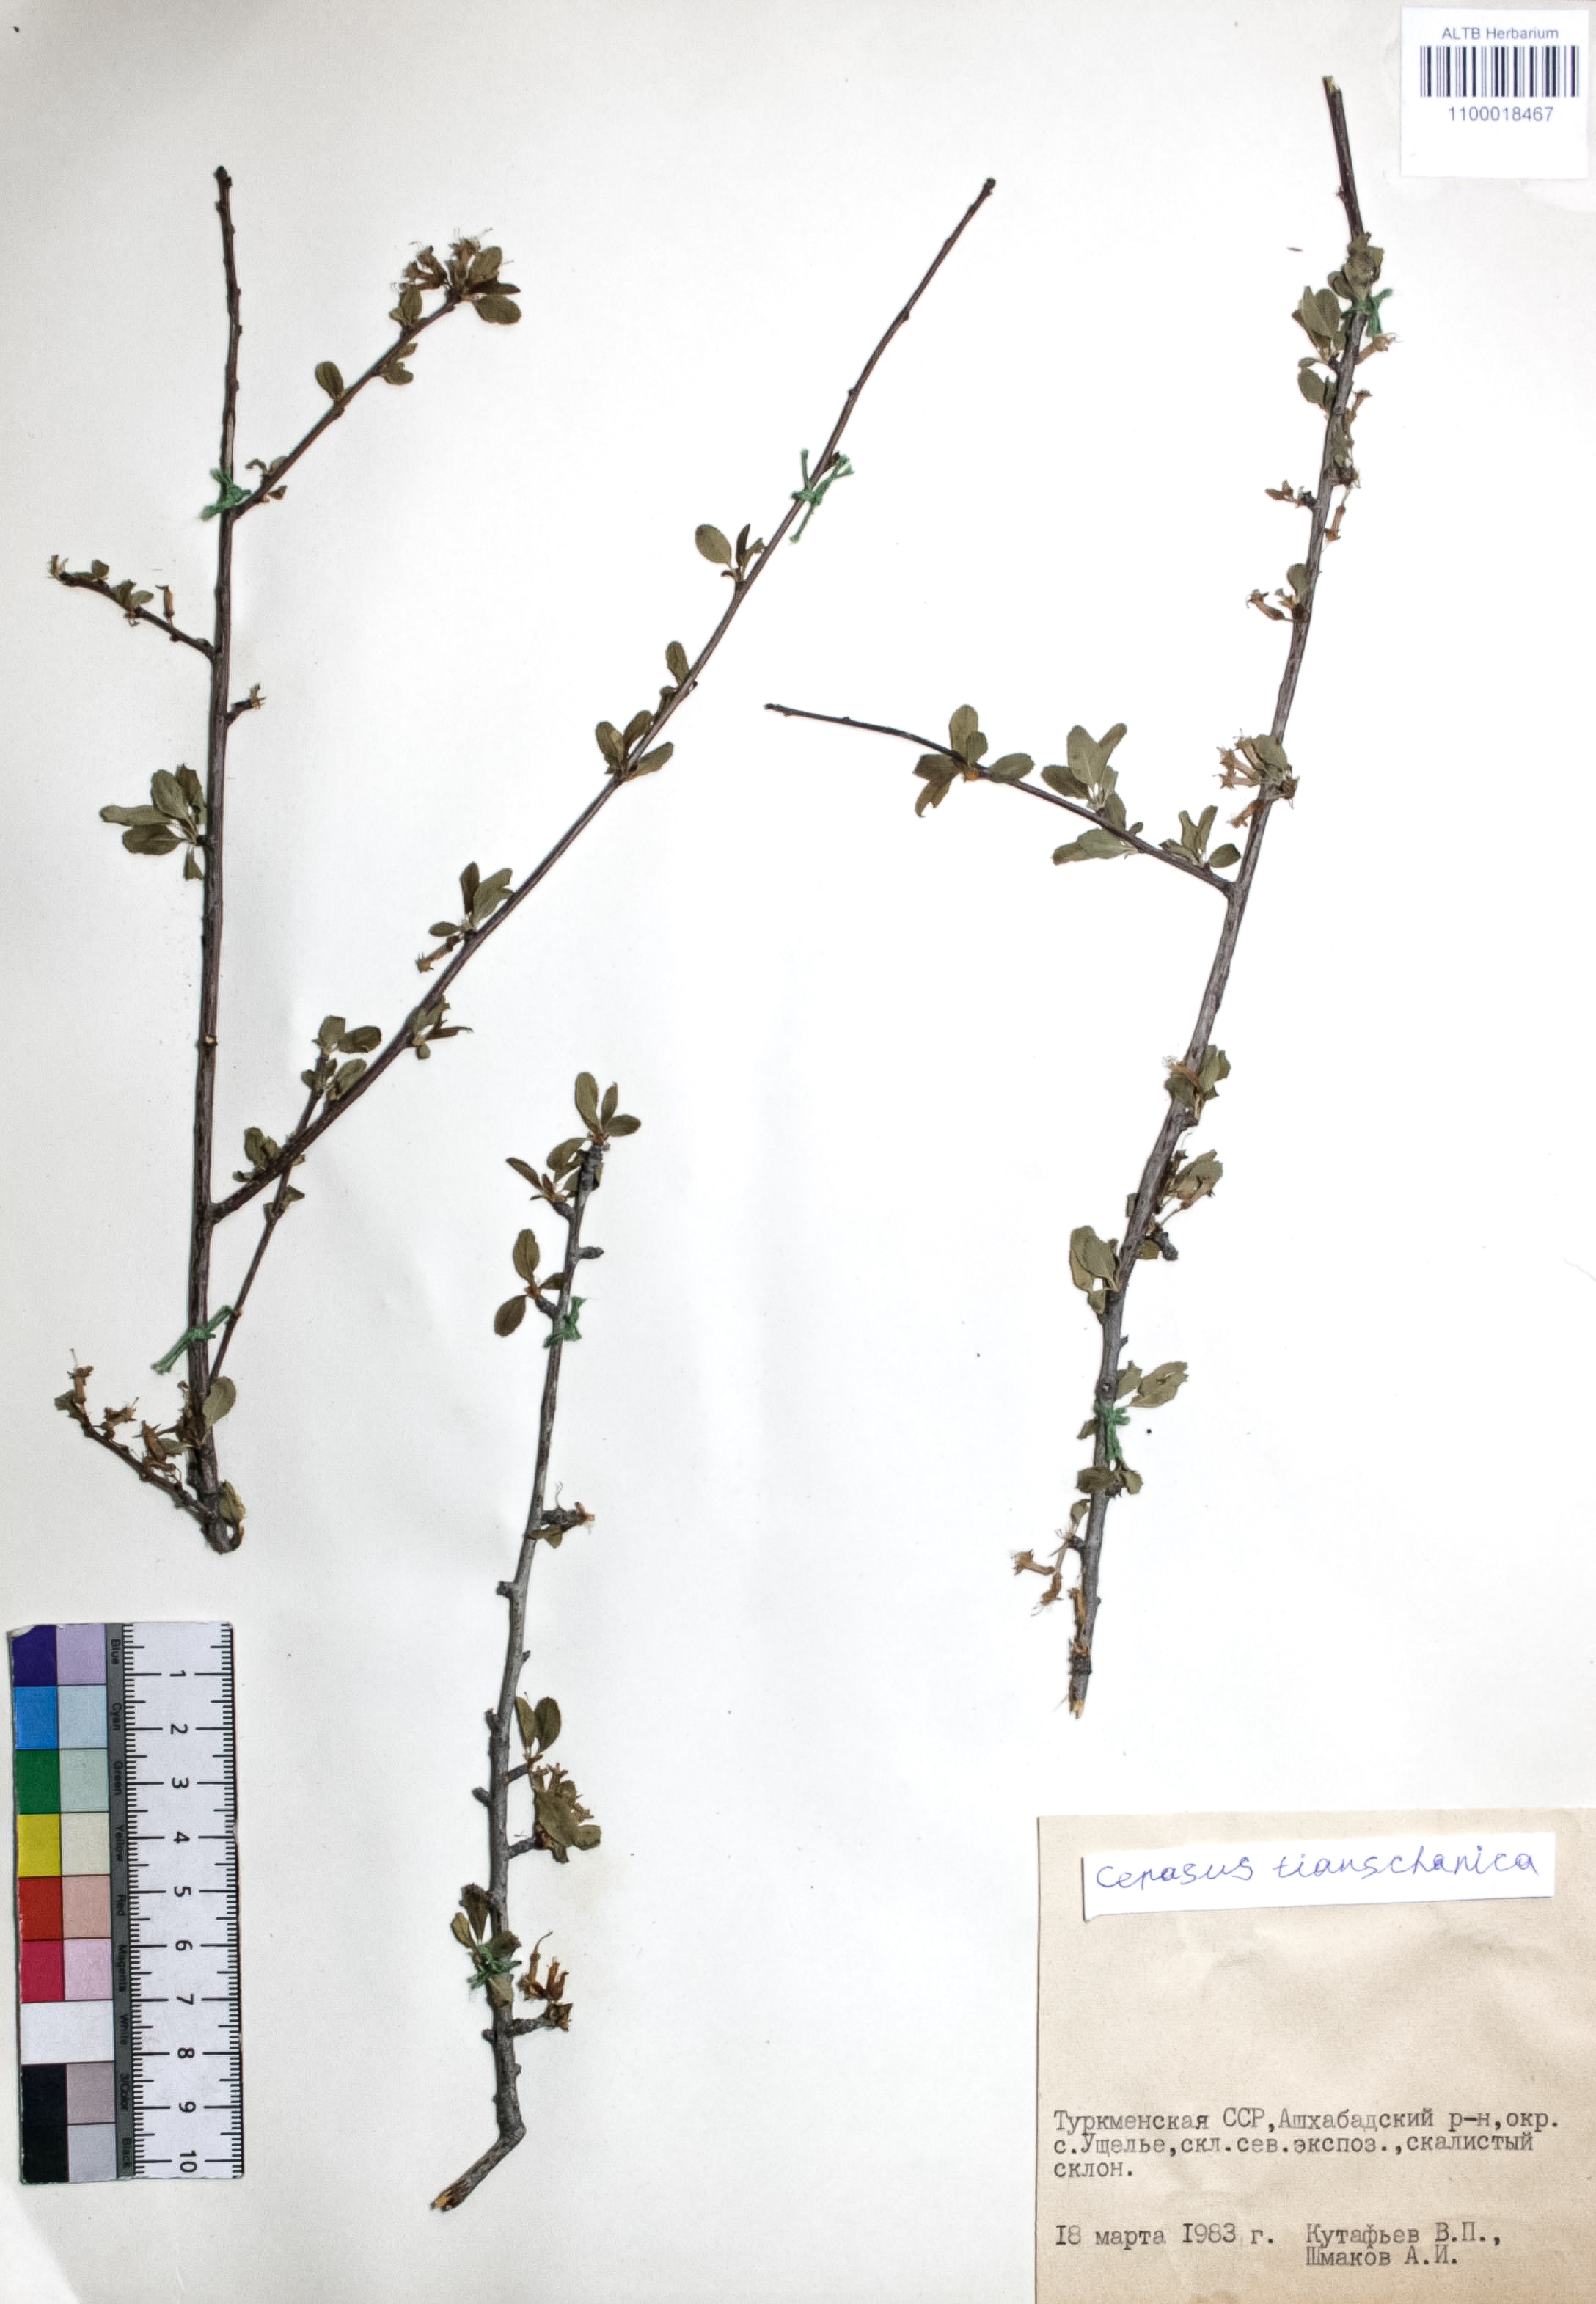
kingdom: Plantae
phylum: Tracheophyta
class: Magnoliopsida
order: Rosales
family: Rosaceae
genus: Prunus
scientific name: Prunus griffithii
